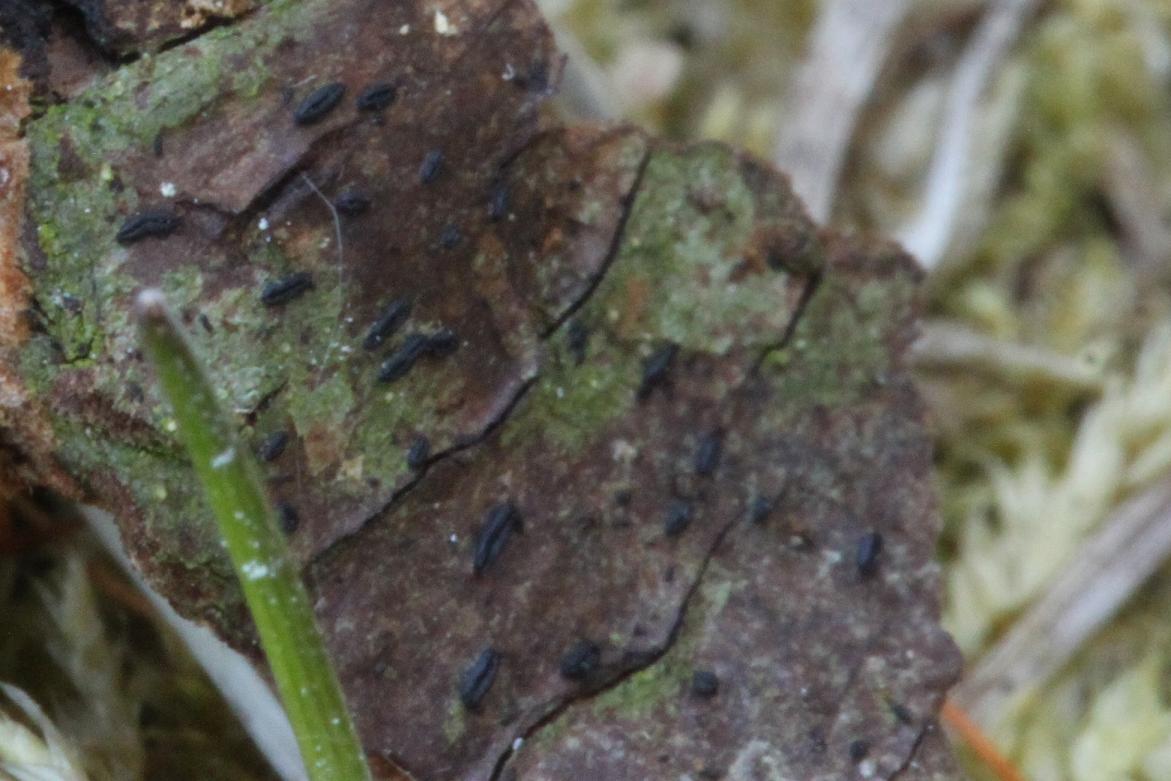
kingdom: Fungi
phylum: Ascomycota
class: Dothideomycetes
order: Hysteriales
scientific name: Hysteriales
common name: kulmundordenen
